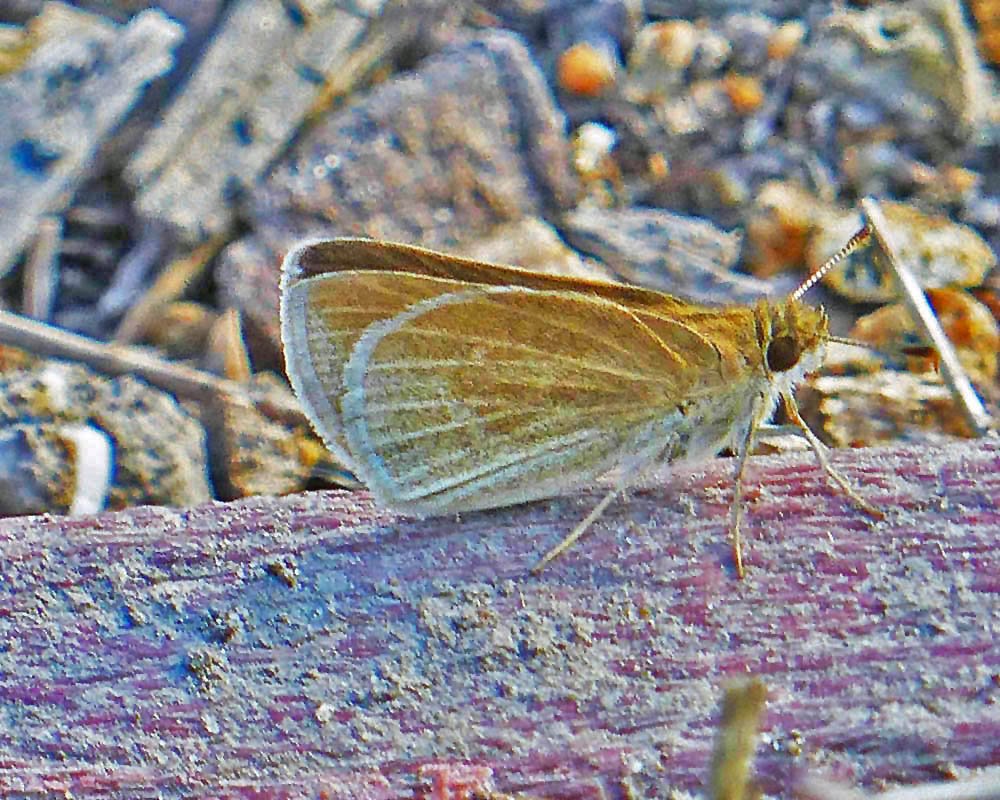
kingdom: Animalia
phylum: Arthropoda
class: Insecta
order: Lepidoptera
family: Hesperiidae
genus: Nastra
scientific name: Nastra julia
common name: Julia's Skipper
